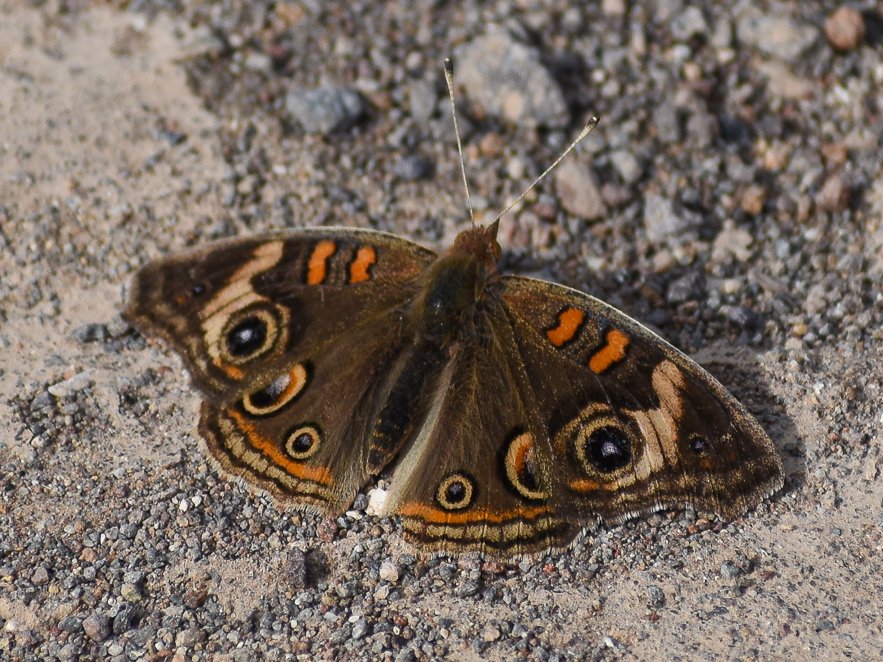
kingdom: Animalia
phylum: Arthropoda
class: Insecta
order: Lepidoptera
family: Nymphalidae
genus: Junonia
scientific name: Junonia coenia
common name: Common Buckeye
